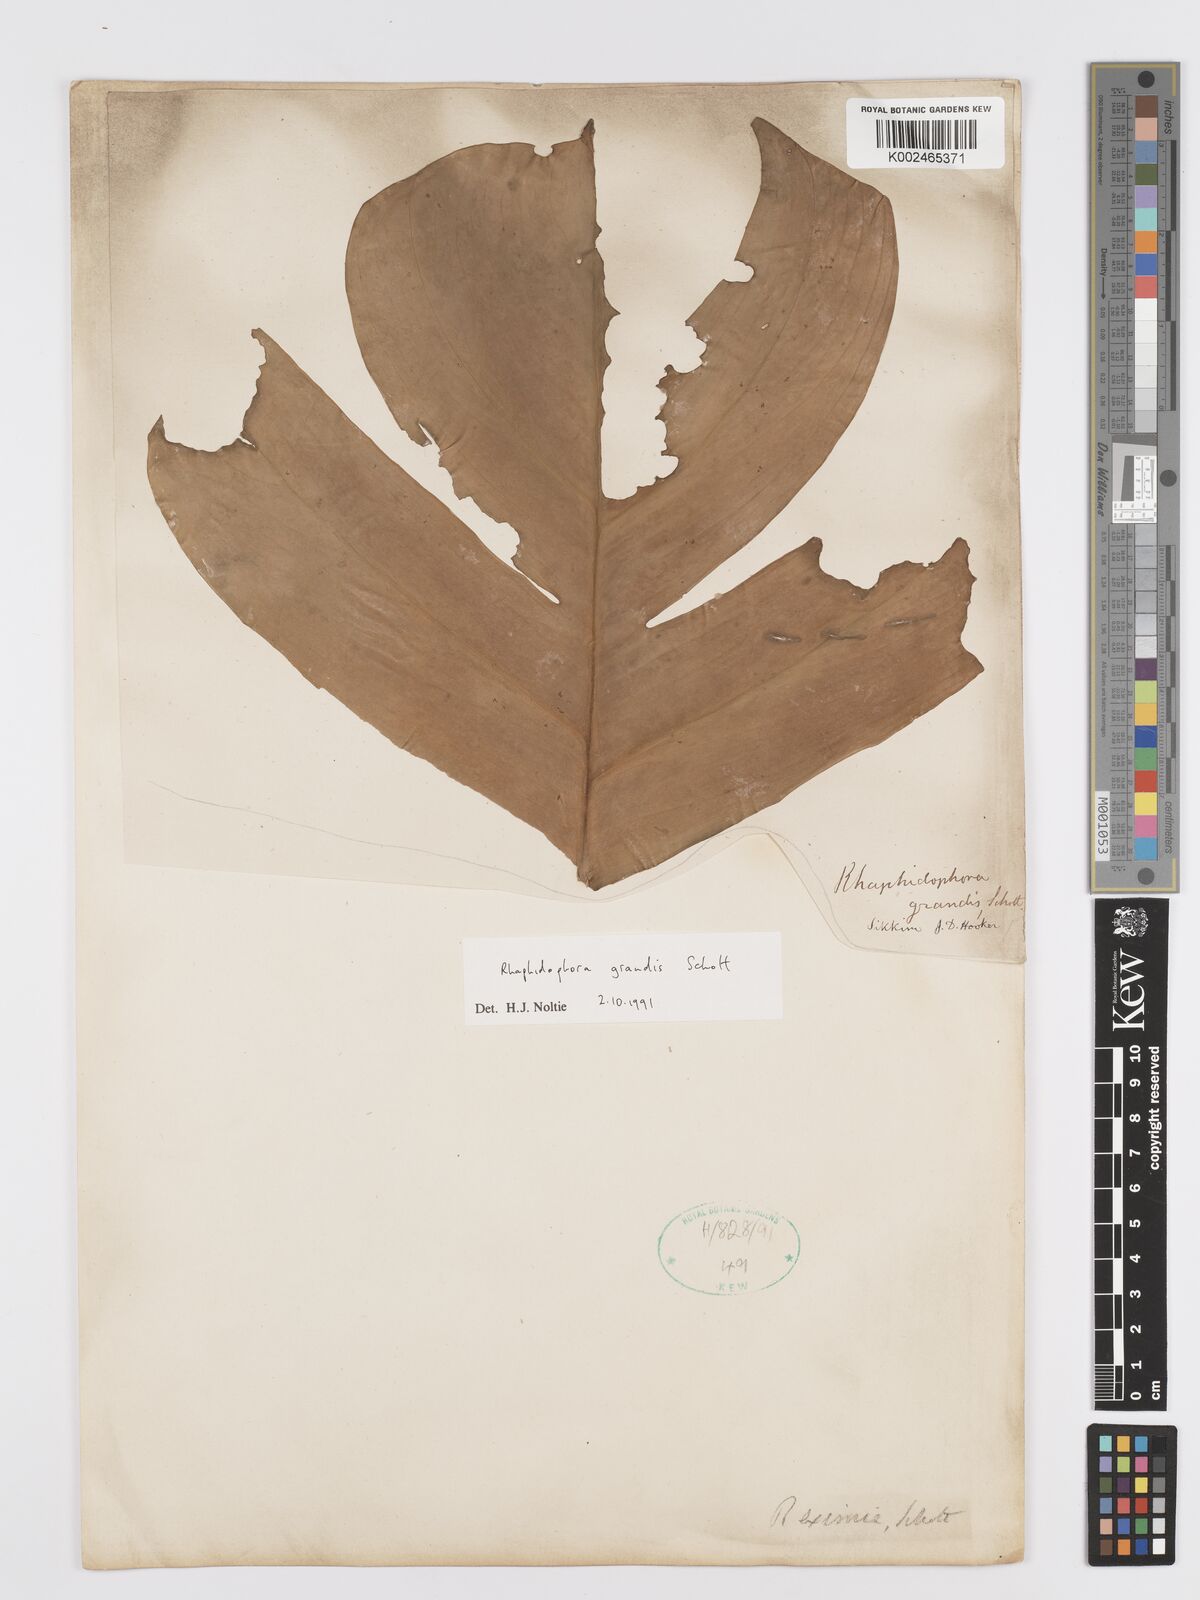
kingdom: Plantae
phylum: Tracheophyta
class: Liliopsida
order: Alismatales
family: Araceae
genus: Rhaphidophora
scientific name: Rhaphidophora decursiva
